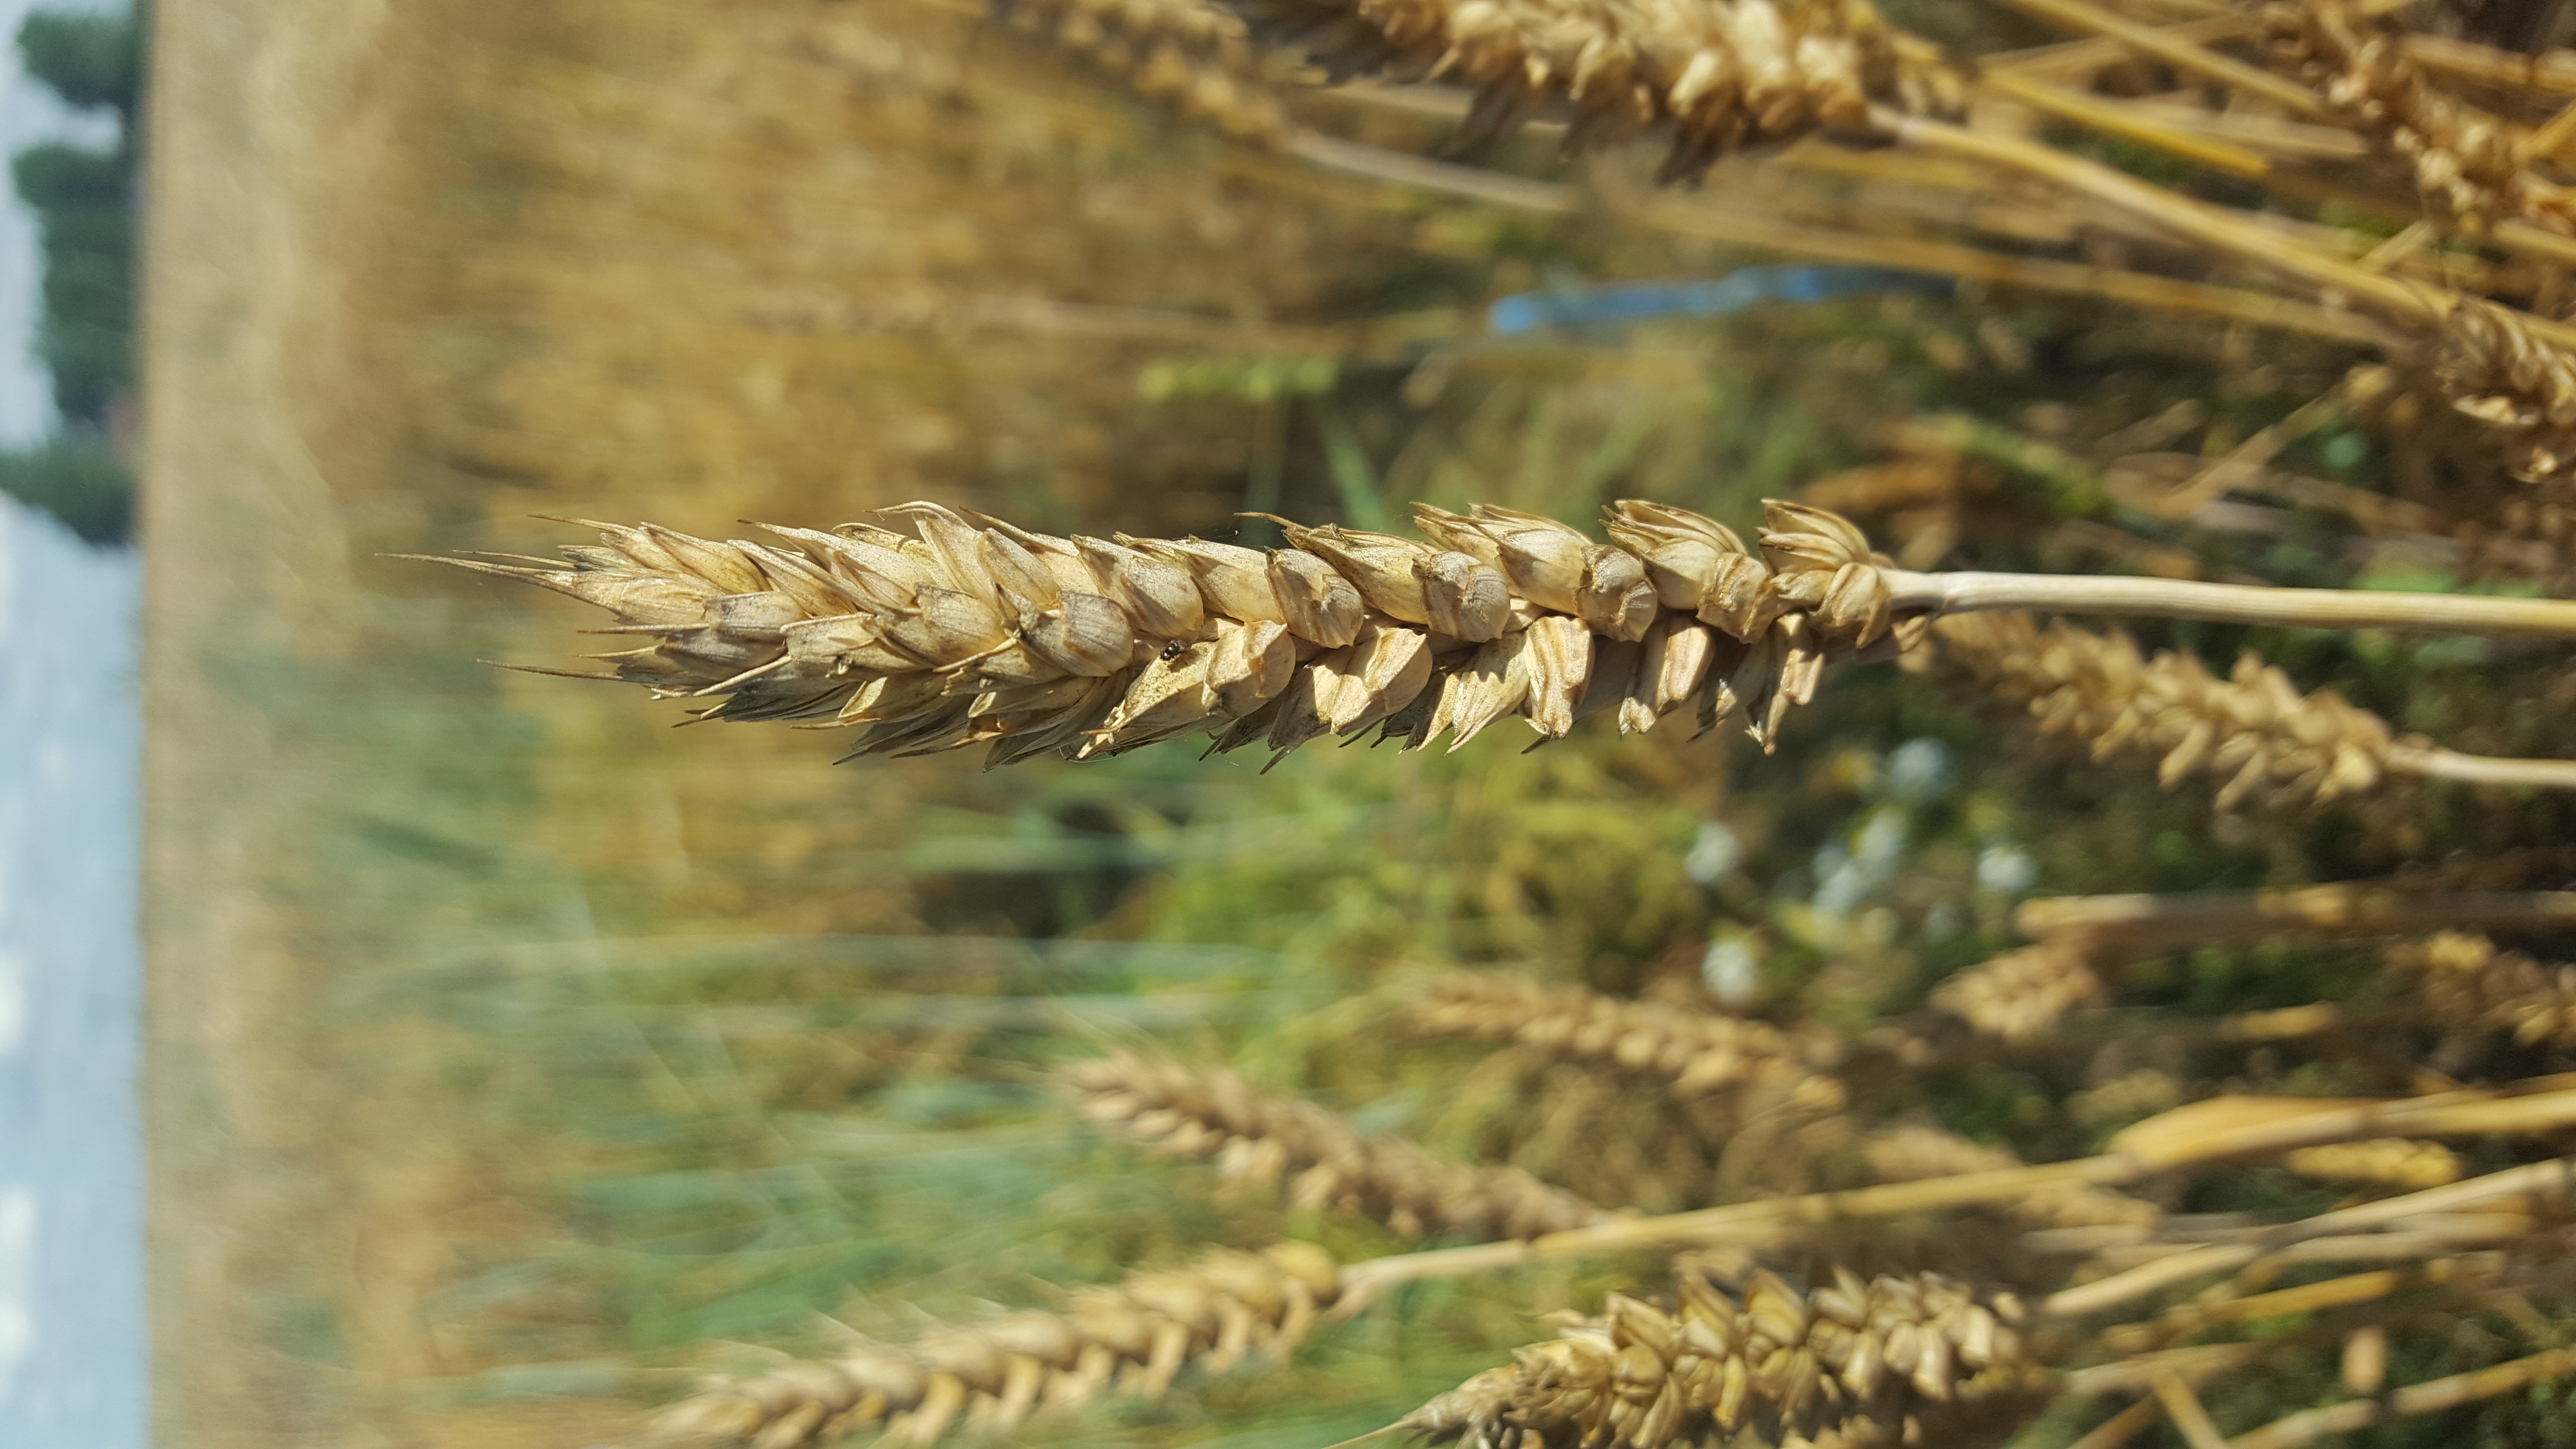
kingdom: Plantae
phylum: Tracheophyta
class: Liliopsida
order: Poales
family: Poaceae
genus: Triticum
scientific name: Triticum aestivum
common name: Common wheat
